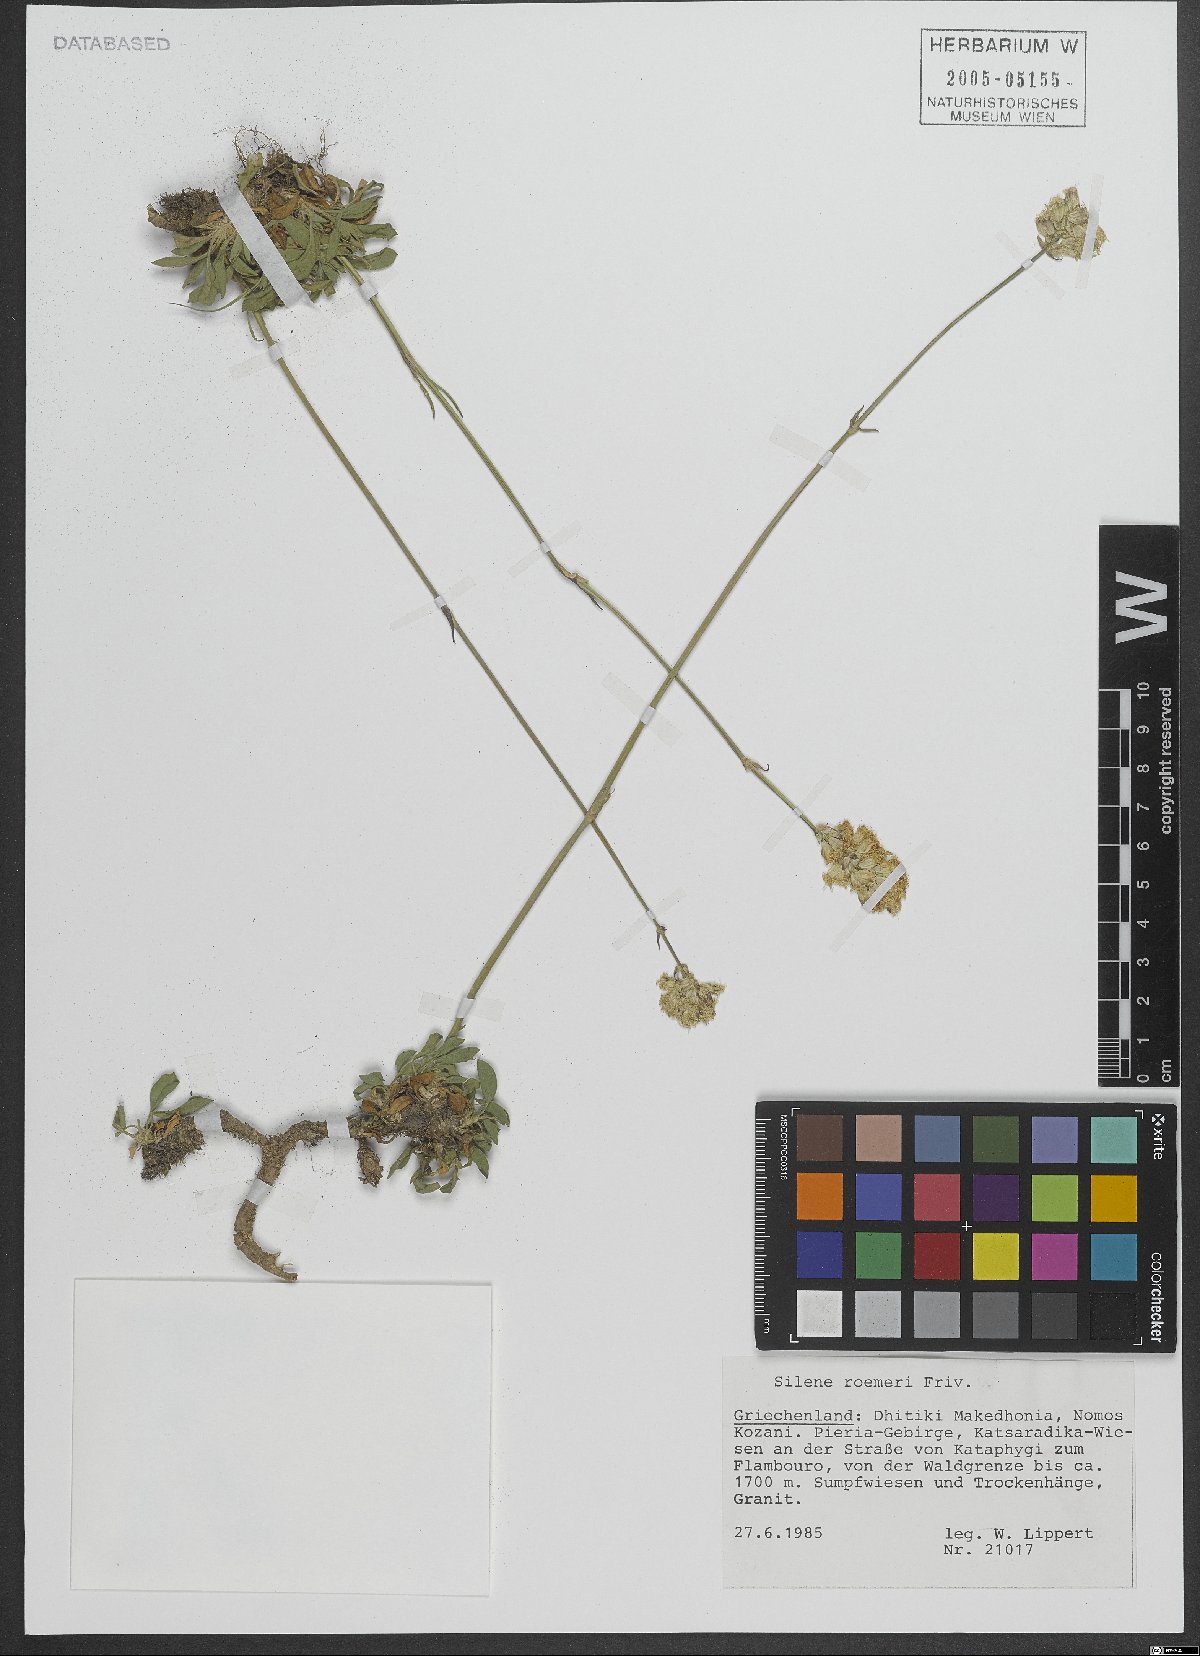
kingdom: Plantae
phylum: Tracheophyta
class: Magnoliopsida
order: Caryophyllales
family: Caryophyllaceae
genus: Silene
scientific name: Silene roemeri
